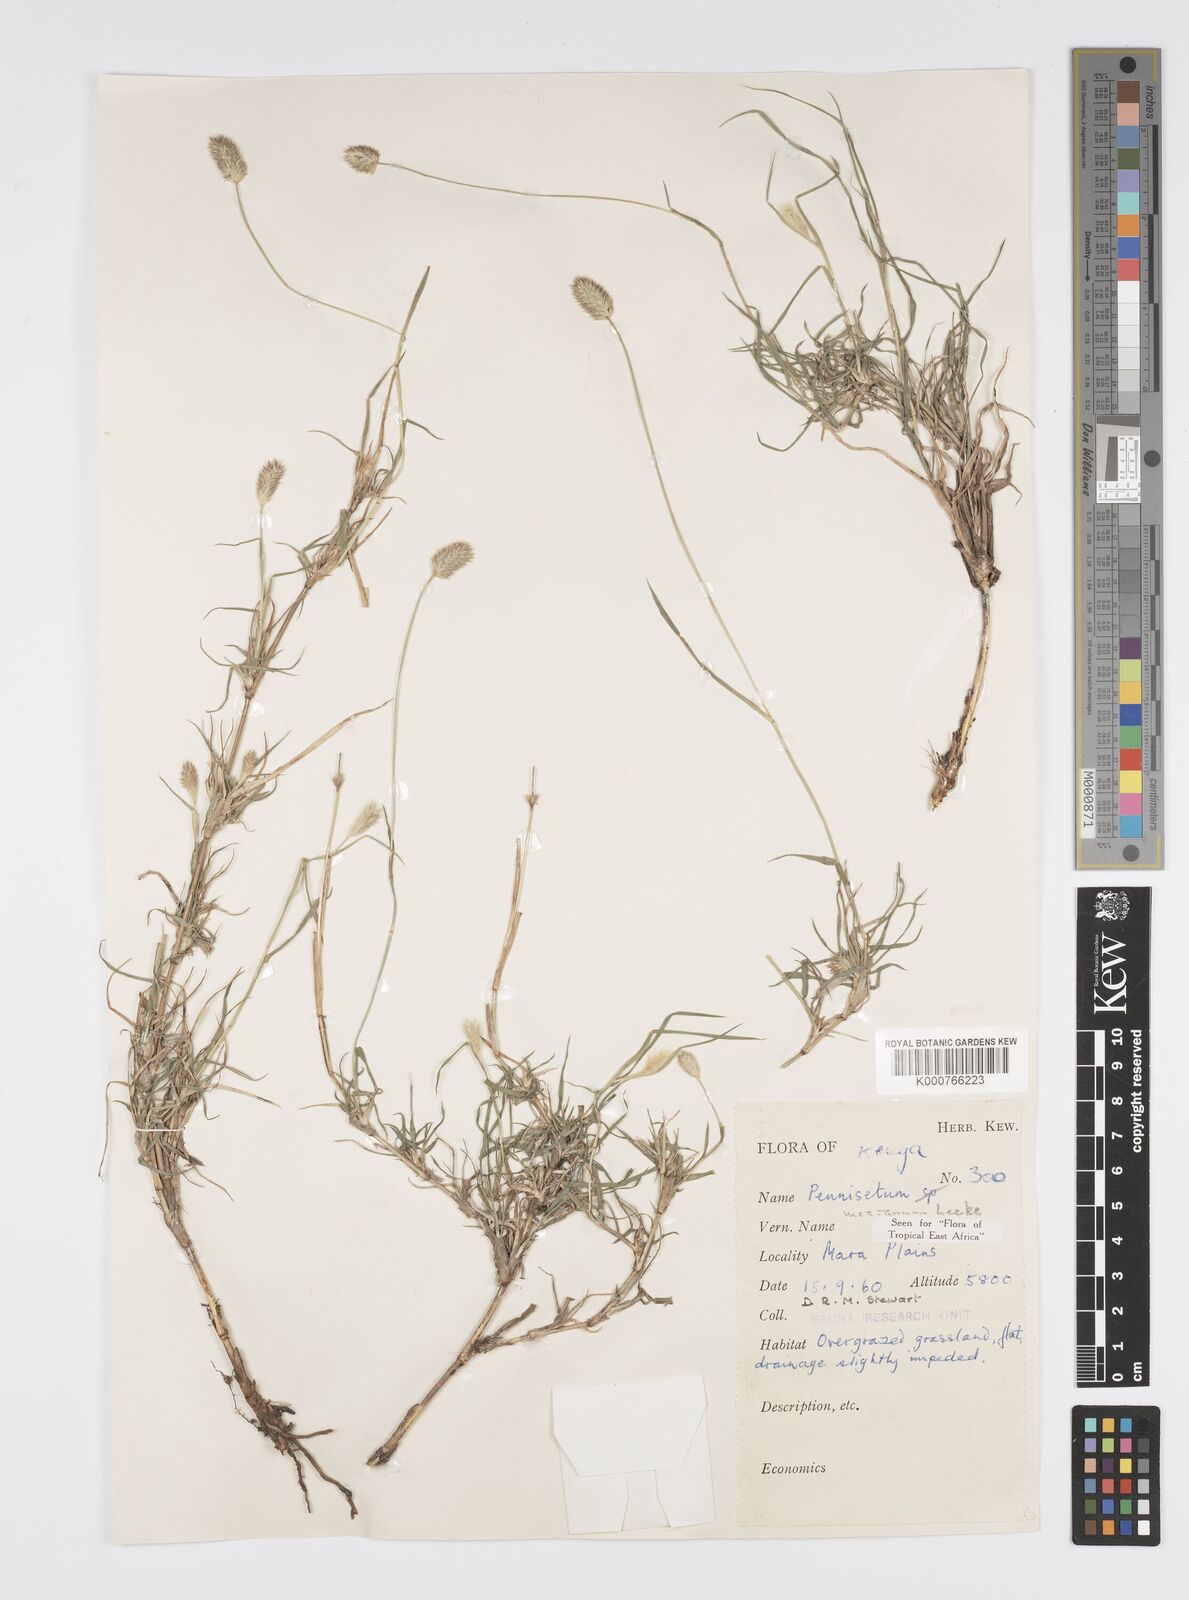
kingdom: Plantae
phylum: Tracheophyta
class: Liliopsida
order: Poales
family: Poaceae
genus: Cenchrus
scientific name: Cenchrus mezianus
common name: Bamboo grass
